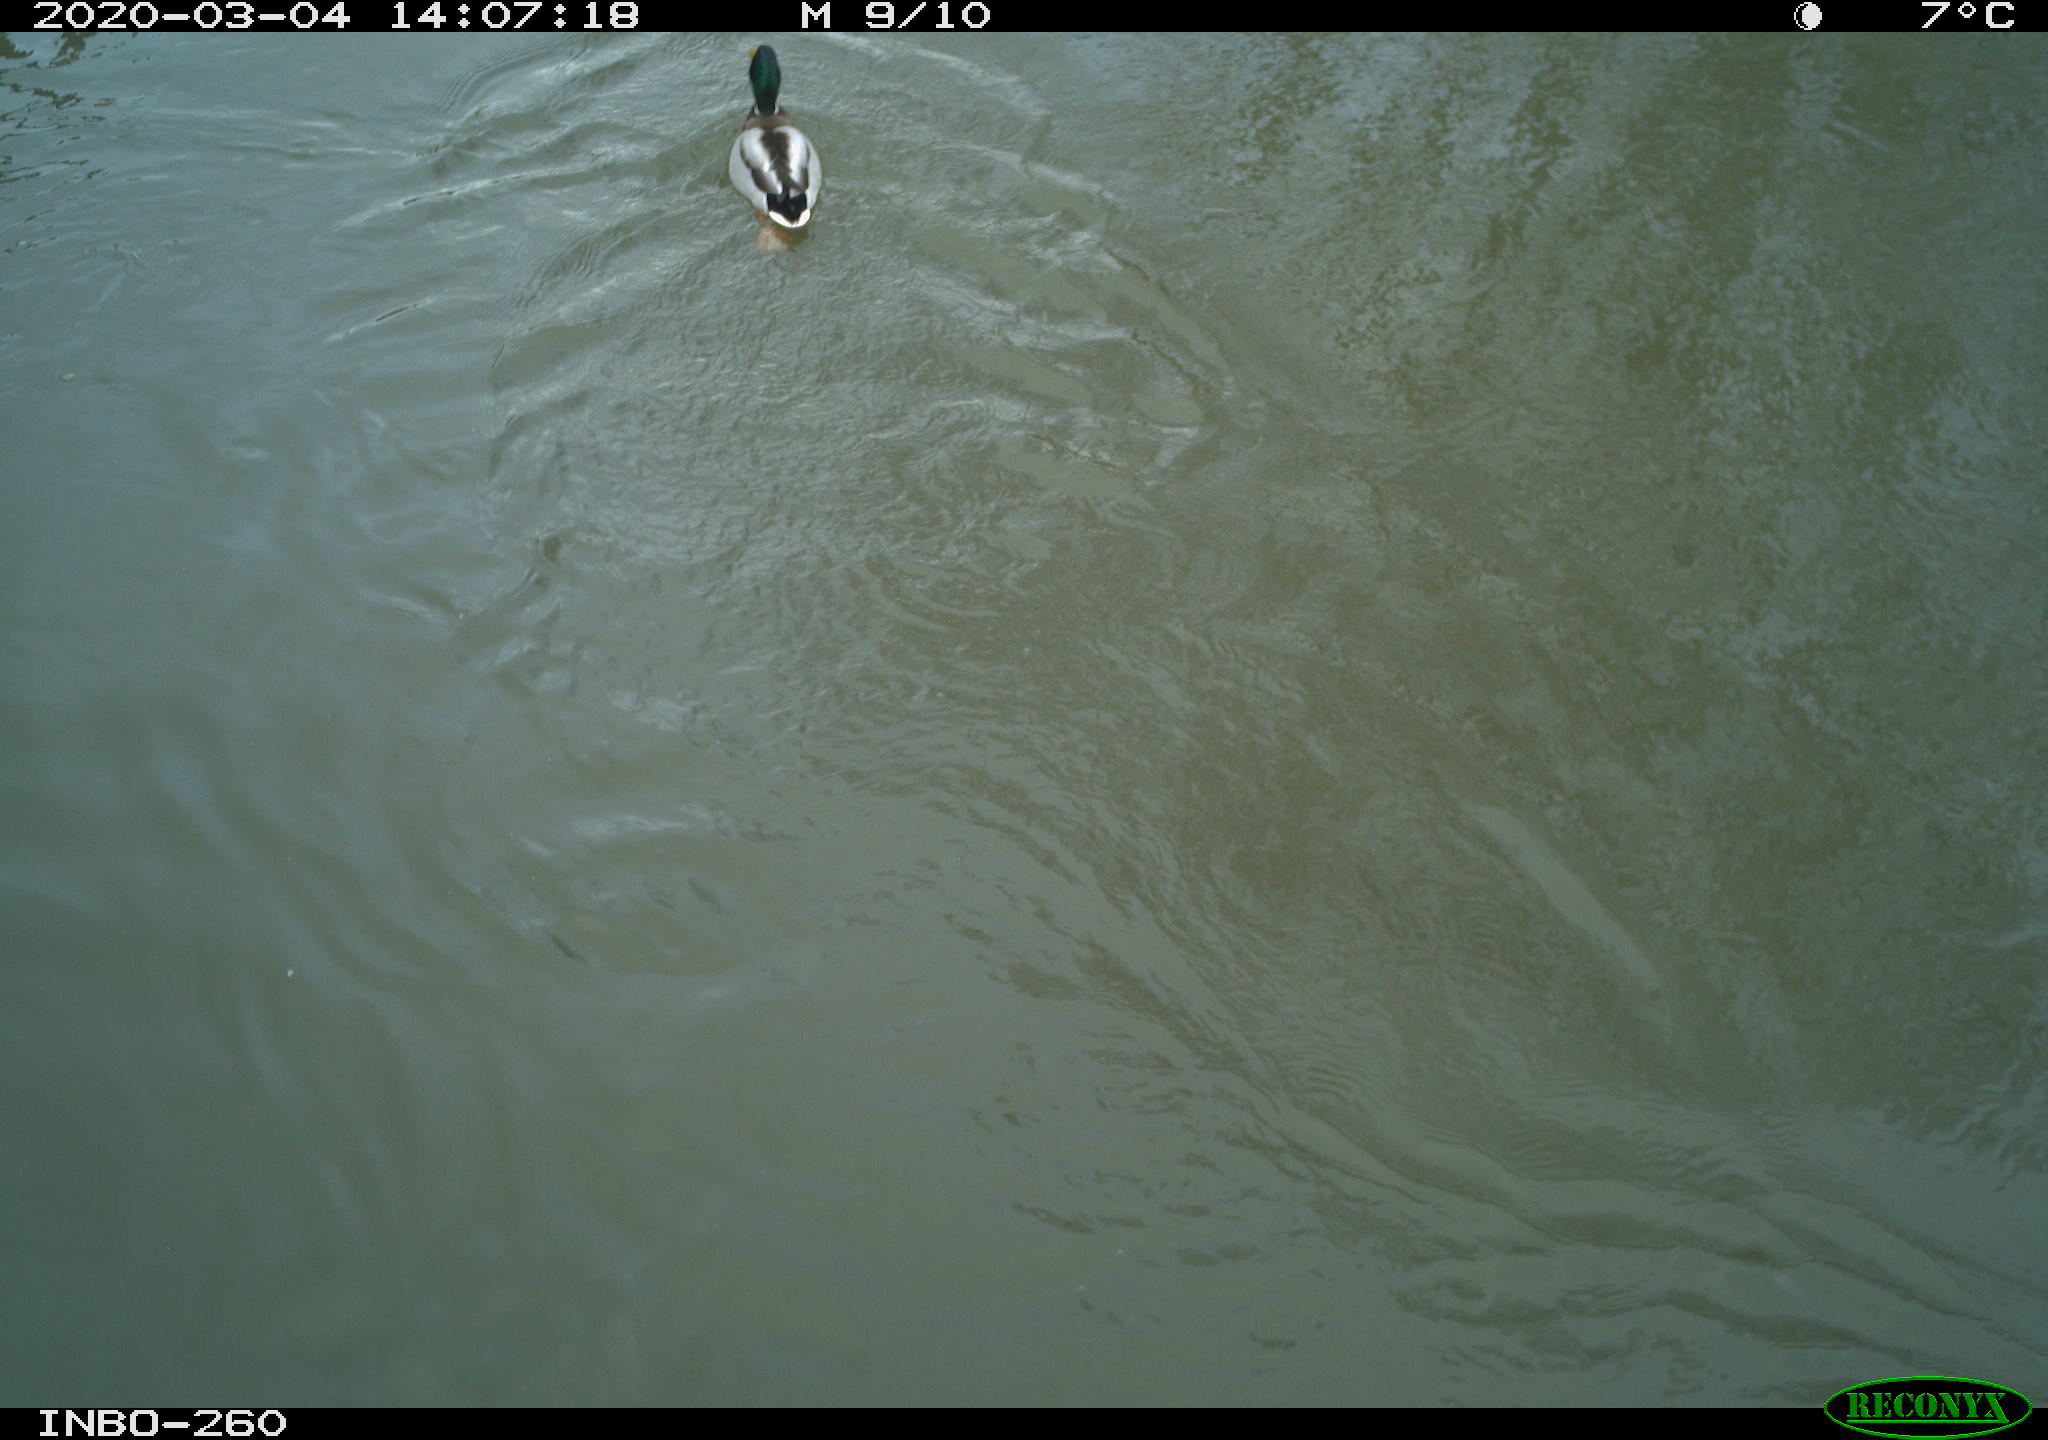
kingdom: Animalia
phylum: Chordata
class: Aves
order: Anseriformes
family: Anatidae
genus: Anas
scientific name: Anas platyrhynchos
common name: Mallard
